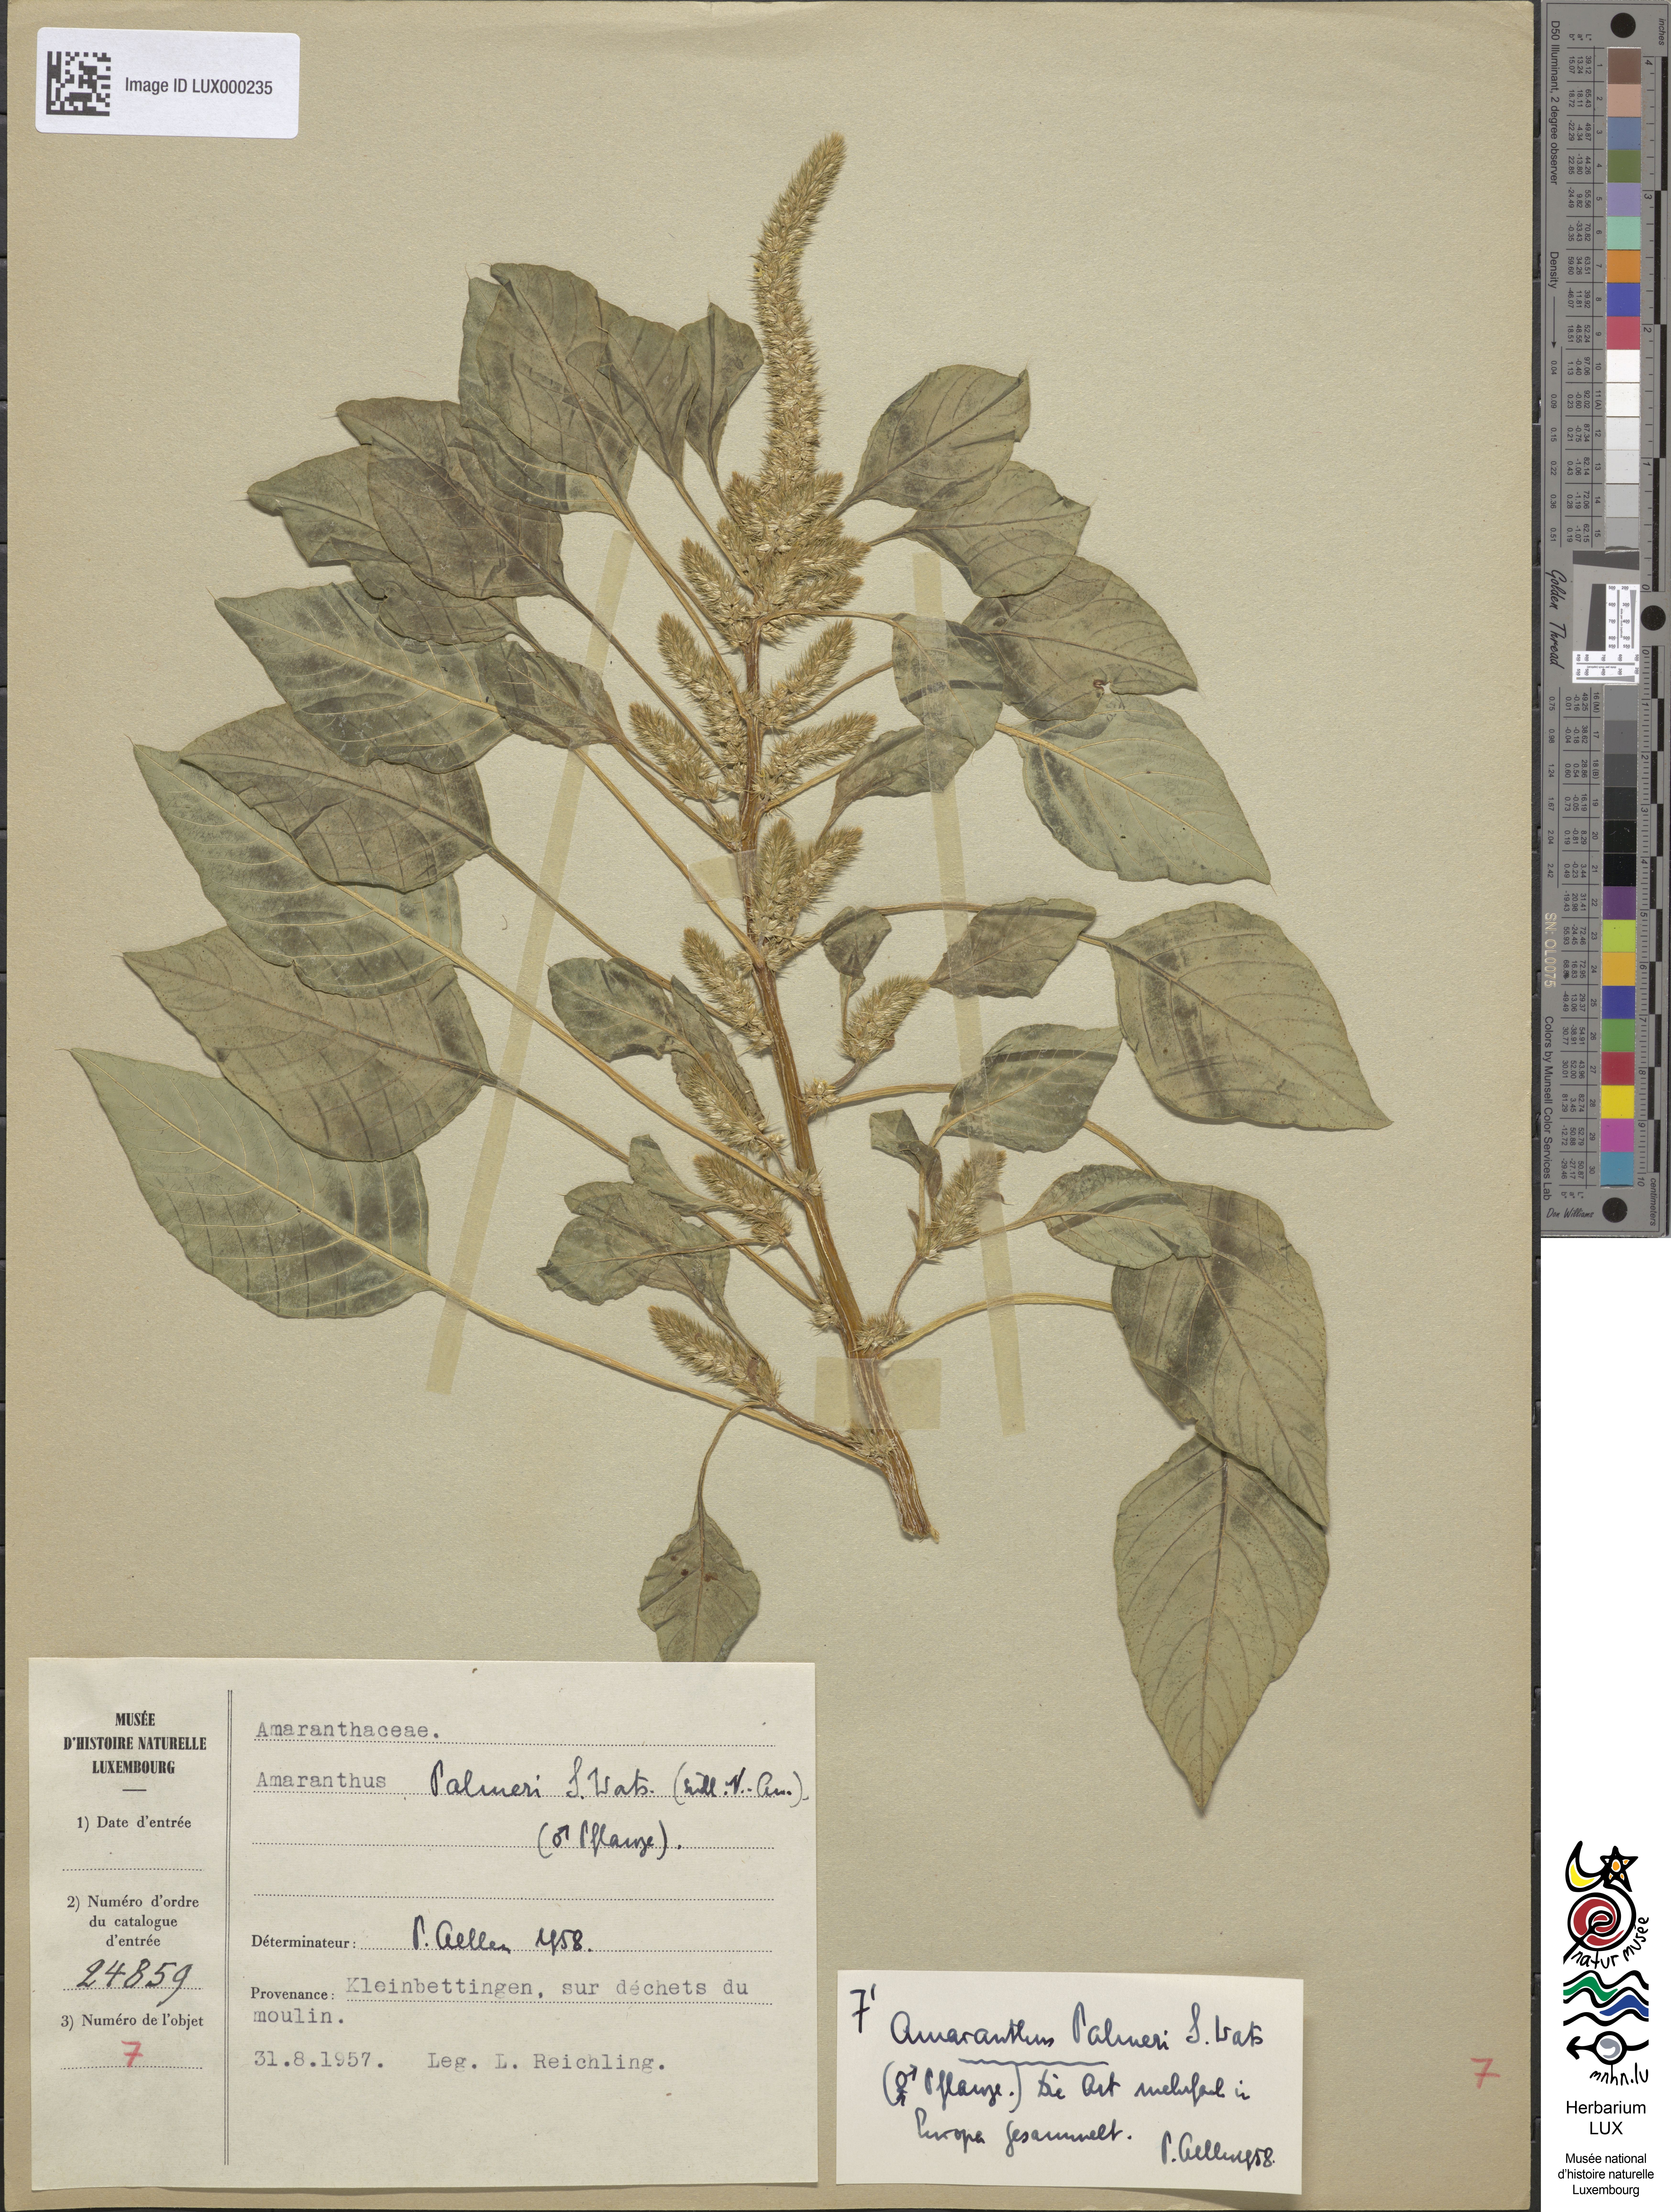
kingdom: Plantae
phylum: Tracheophyta
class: Magnoliopsida
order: Caryophyllales
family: Amaranthaceae
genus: Amaranthus
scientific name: Amaranthus palmeri
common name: Dioecious amaranth
